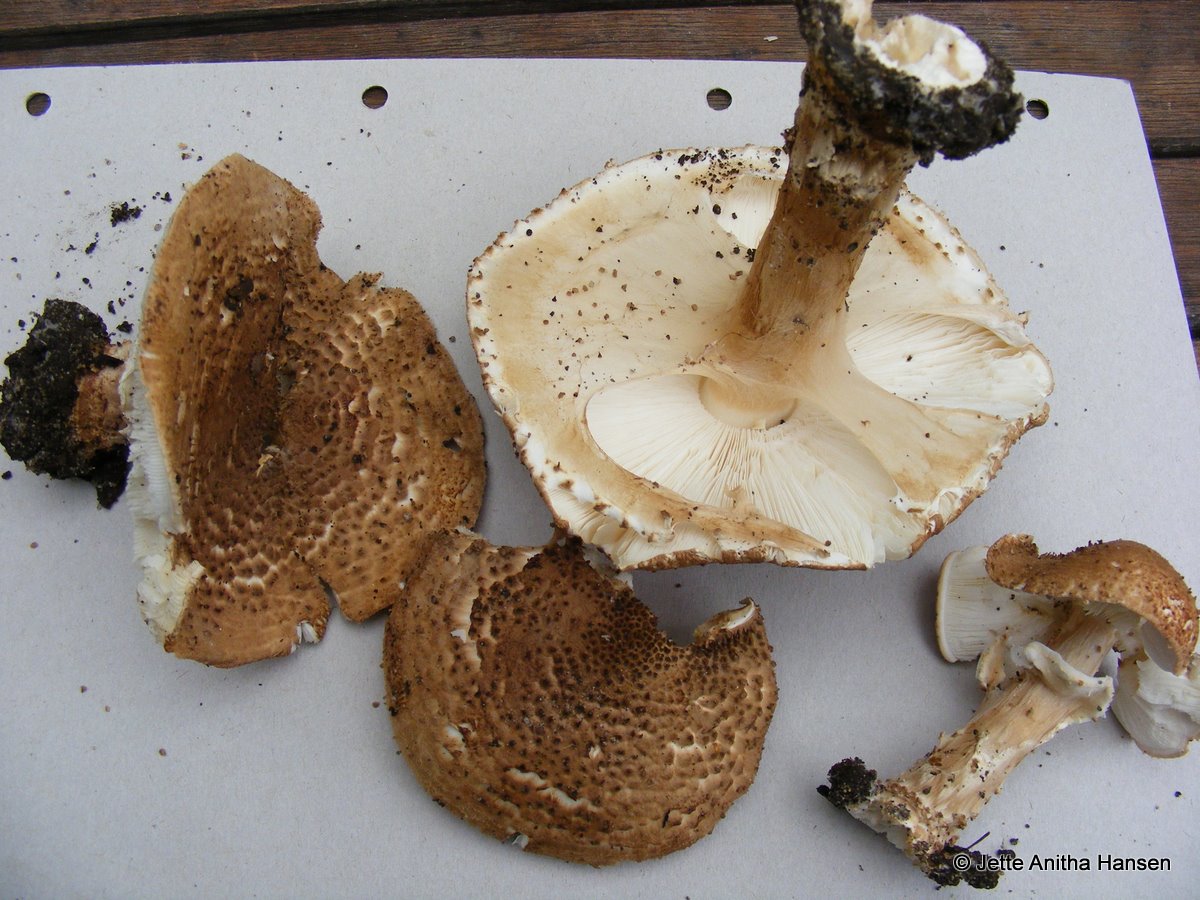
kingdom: Fungi
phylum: Basidiomycota
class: Agaricomycetes
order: Agaricales
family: Agaricaceae
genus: Echinoderma
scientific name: Echinoderma asperum
